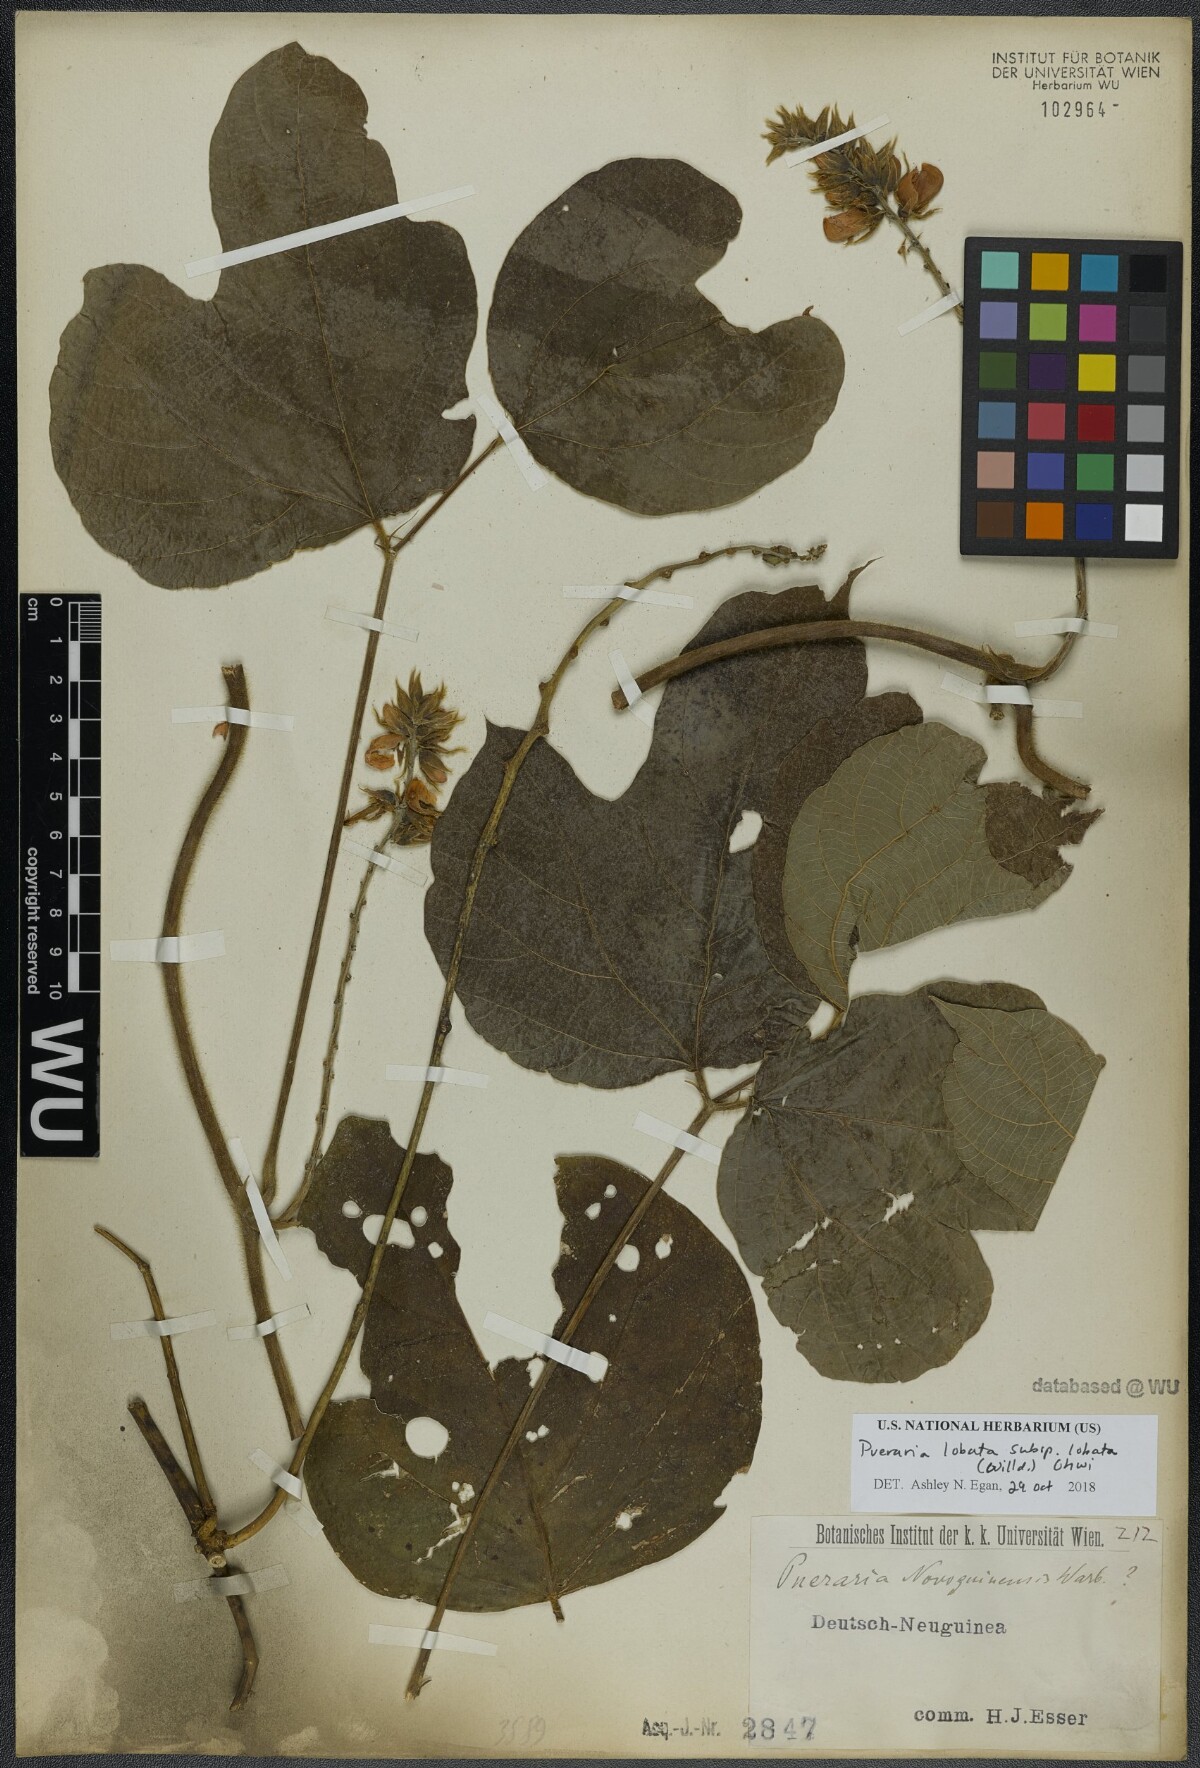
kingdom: Plantae
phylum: Tracheophyta
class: Magnoliopsida
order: Fabales
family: Fabaceae
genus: Pueraria
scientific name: Pueraria montana
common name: Kudzu
